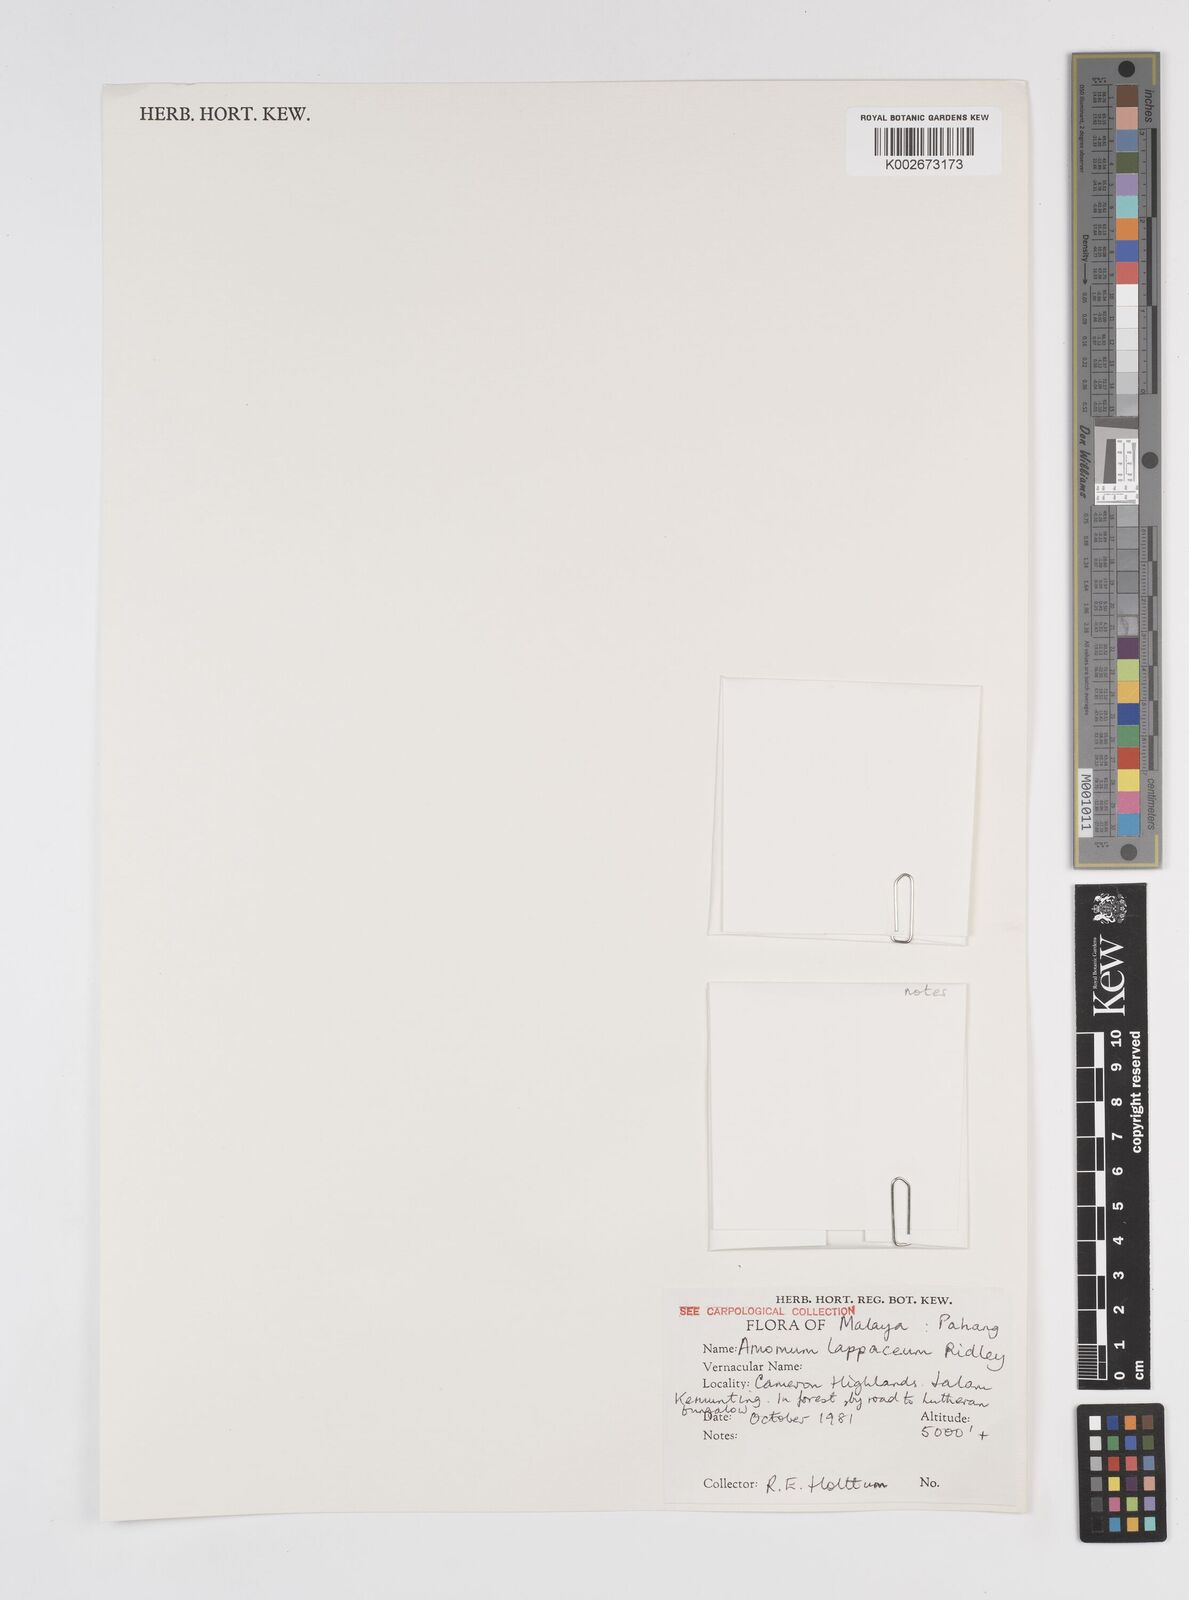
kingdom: Plantae
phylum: Tracheophyta
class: Liliopsida
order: Zingiberales
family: Zingiberaceae
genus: Meistera
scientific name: Meistera lappacea
